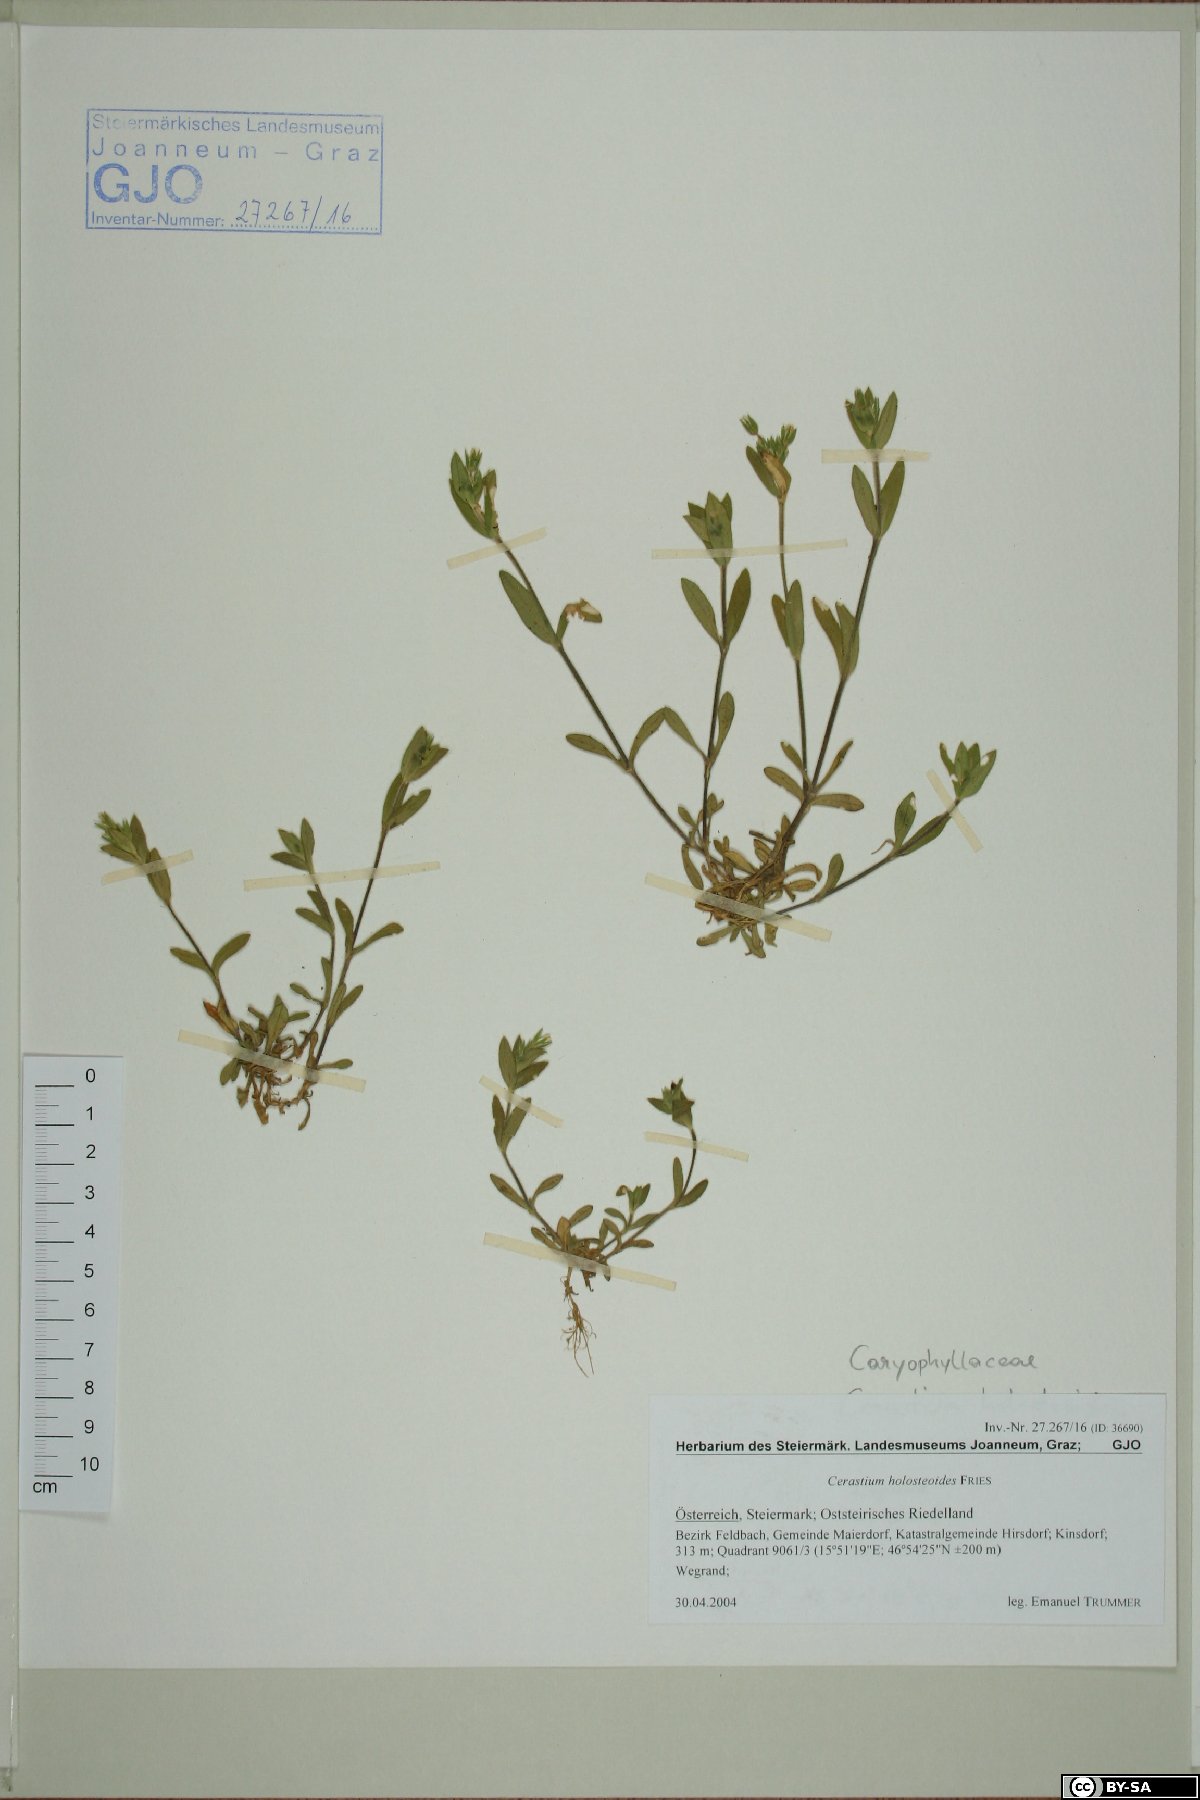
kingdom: Plantae
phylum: Tracheophyta
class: Magnoliopsida
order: Caryophyllales
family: Caryophyllaceae
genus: Cerastium
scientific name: Cerastium holosteoides
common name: Big chickweed
